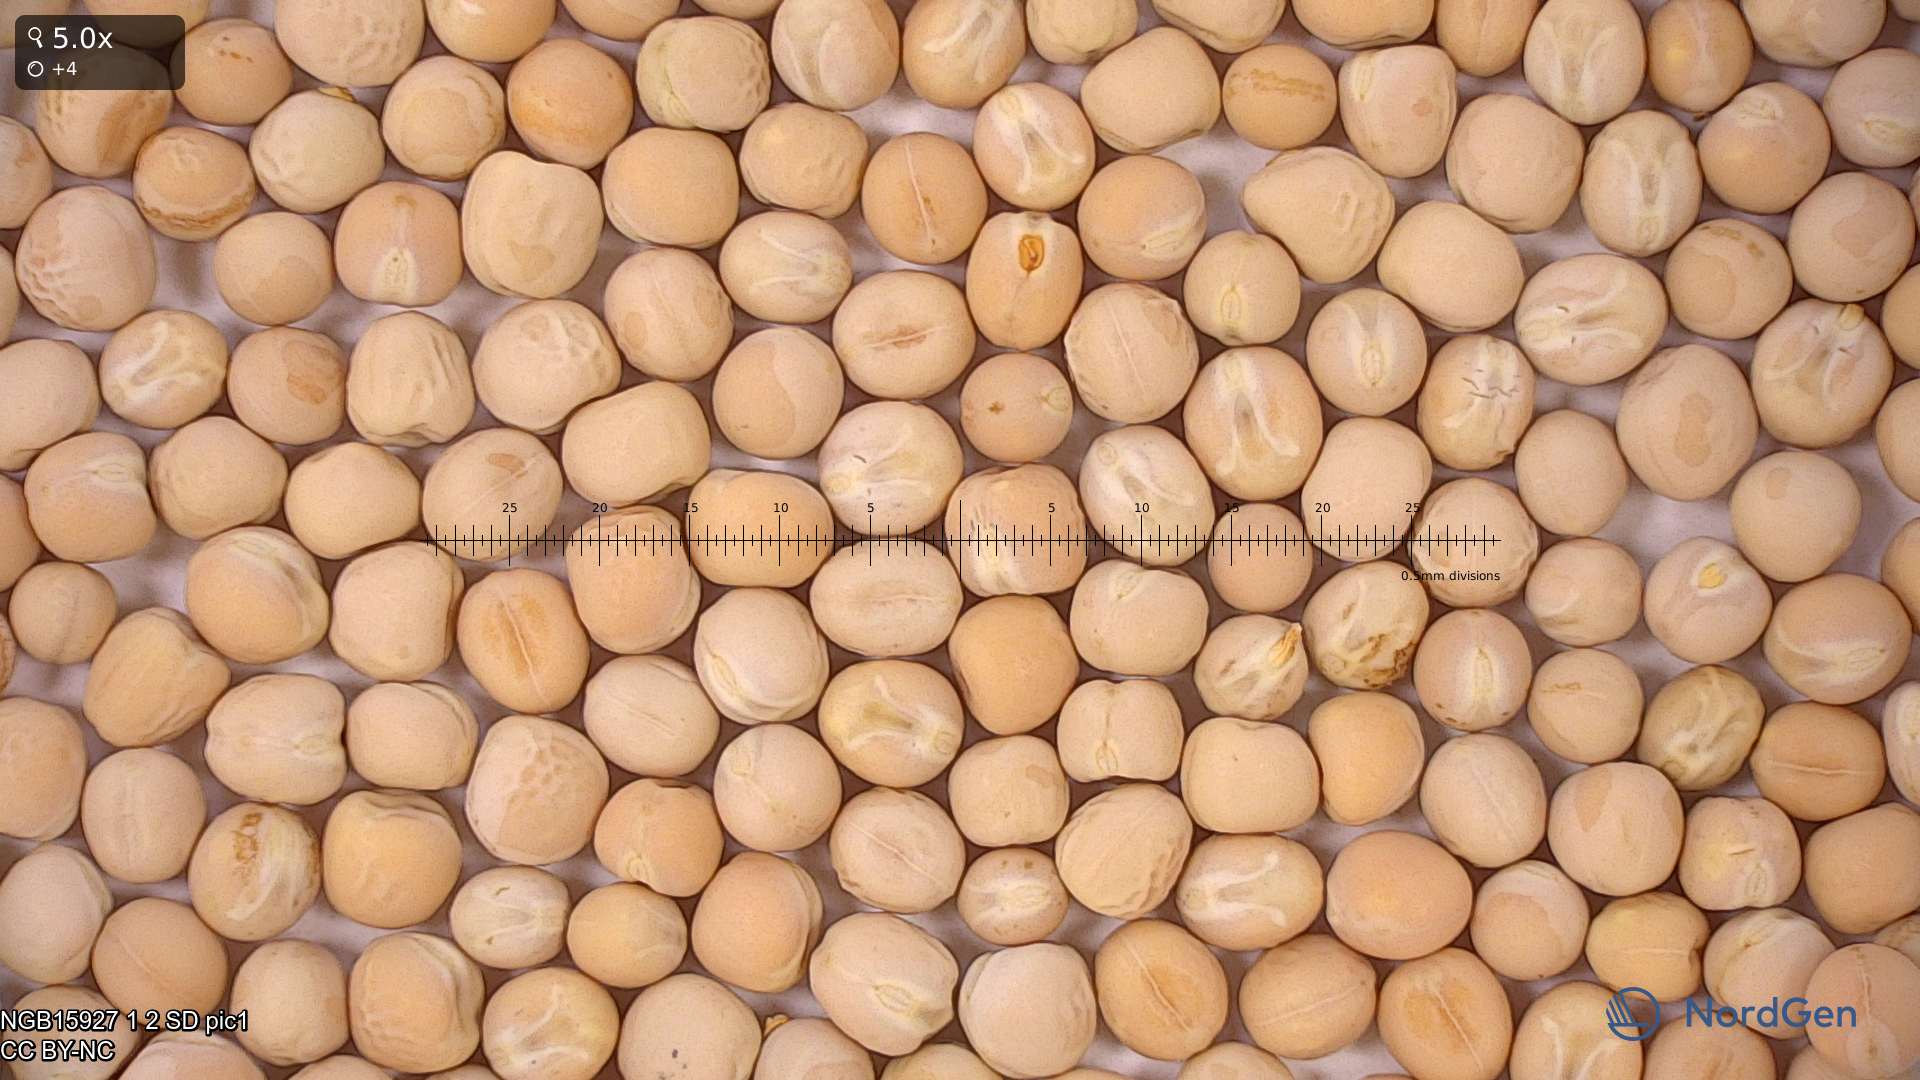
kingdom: Plantae
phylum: Tracheophyta
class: Magnoliopsida
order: Fabales
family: Fabaceae
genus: Lathyrus
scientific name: Lathyrus oleraceus
